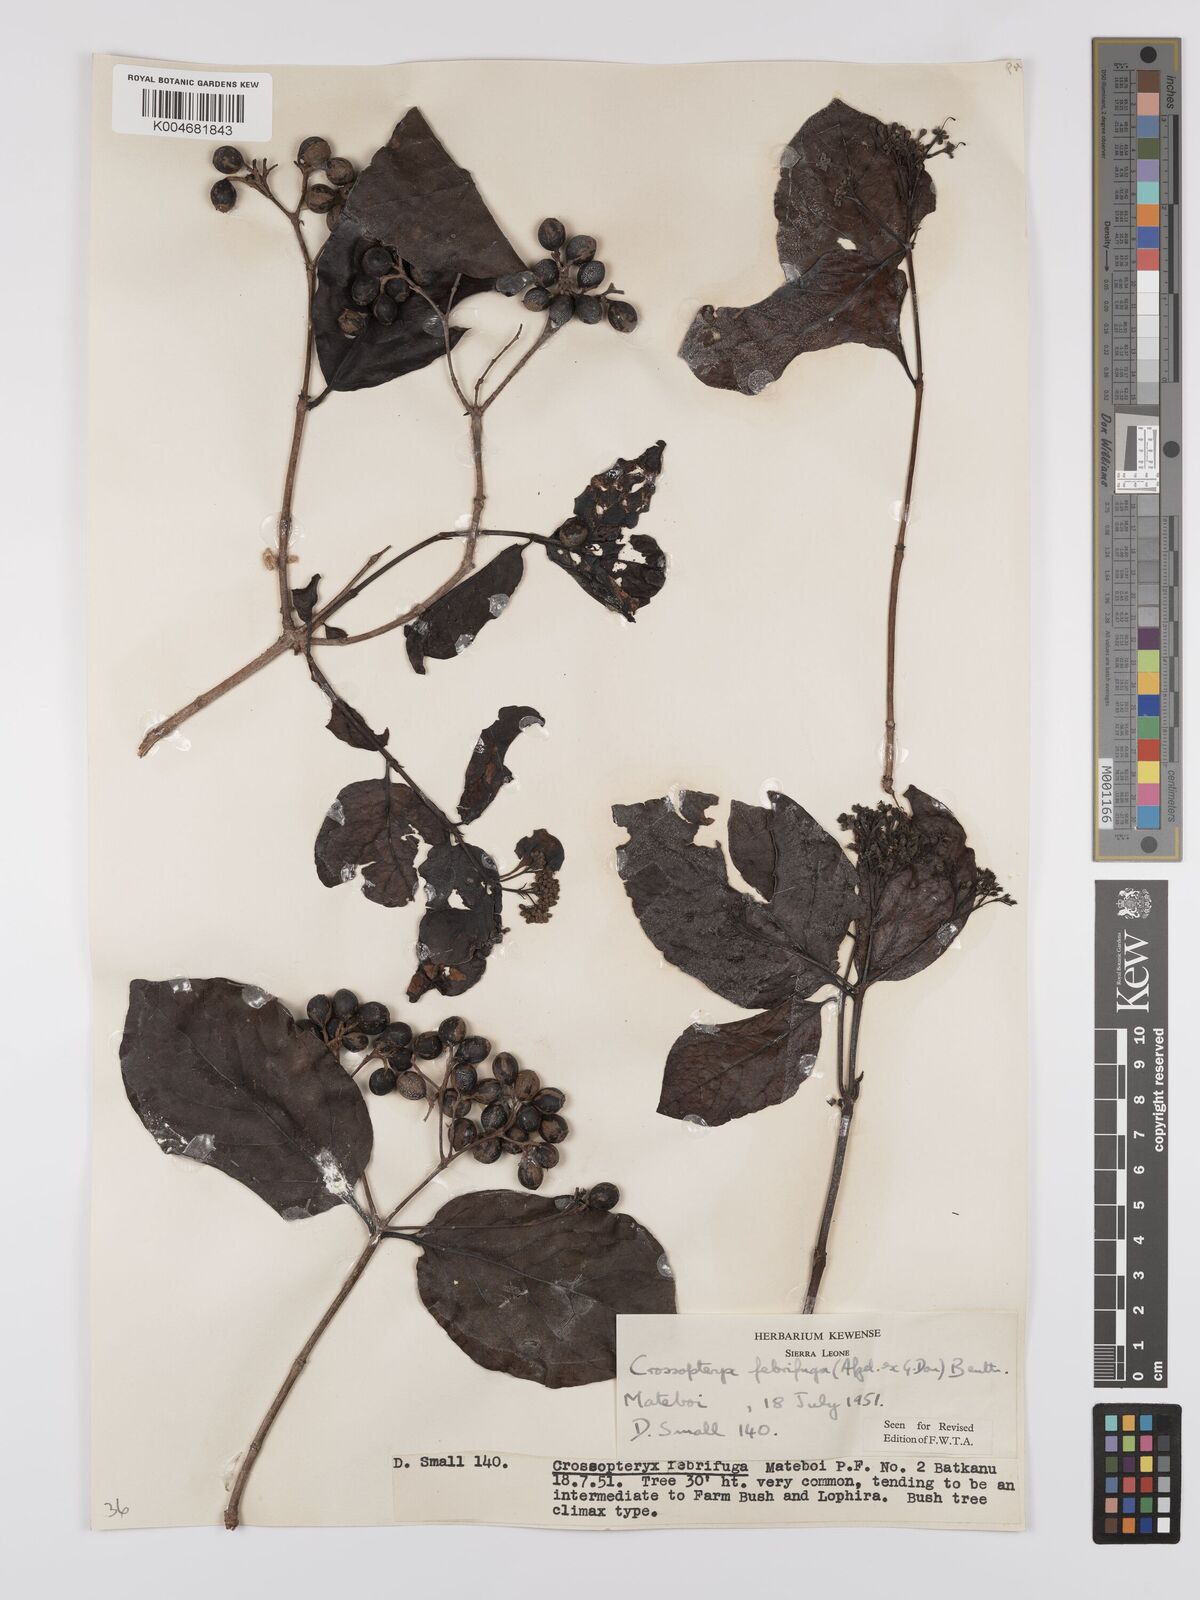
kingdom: Plantae
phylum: Tracheophyta
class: Magnoliopsida
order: Gentianales
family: Rubiaceae
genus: Crossopteryx
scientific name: Crossopteryx febrifuga
